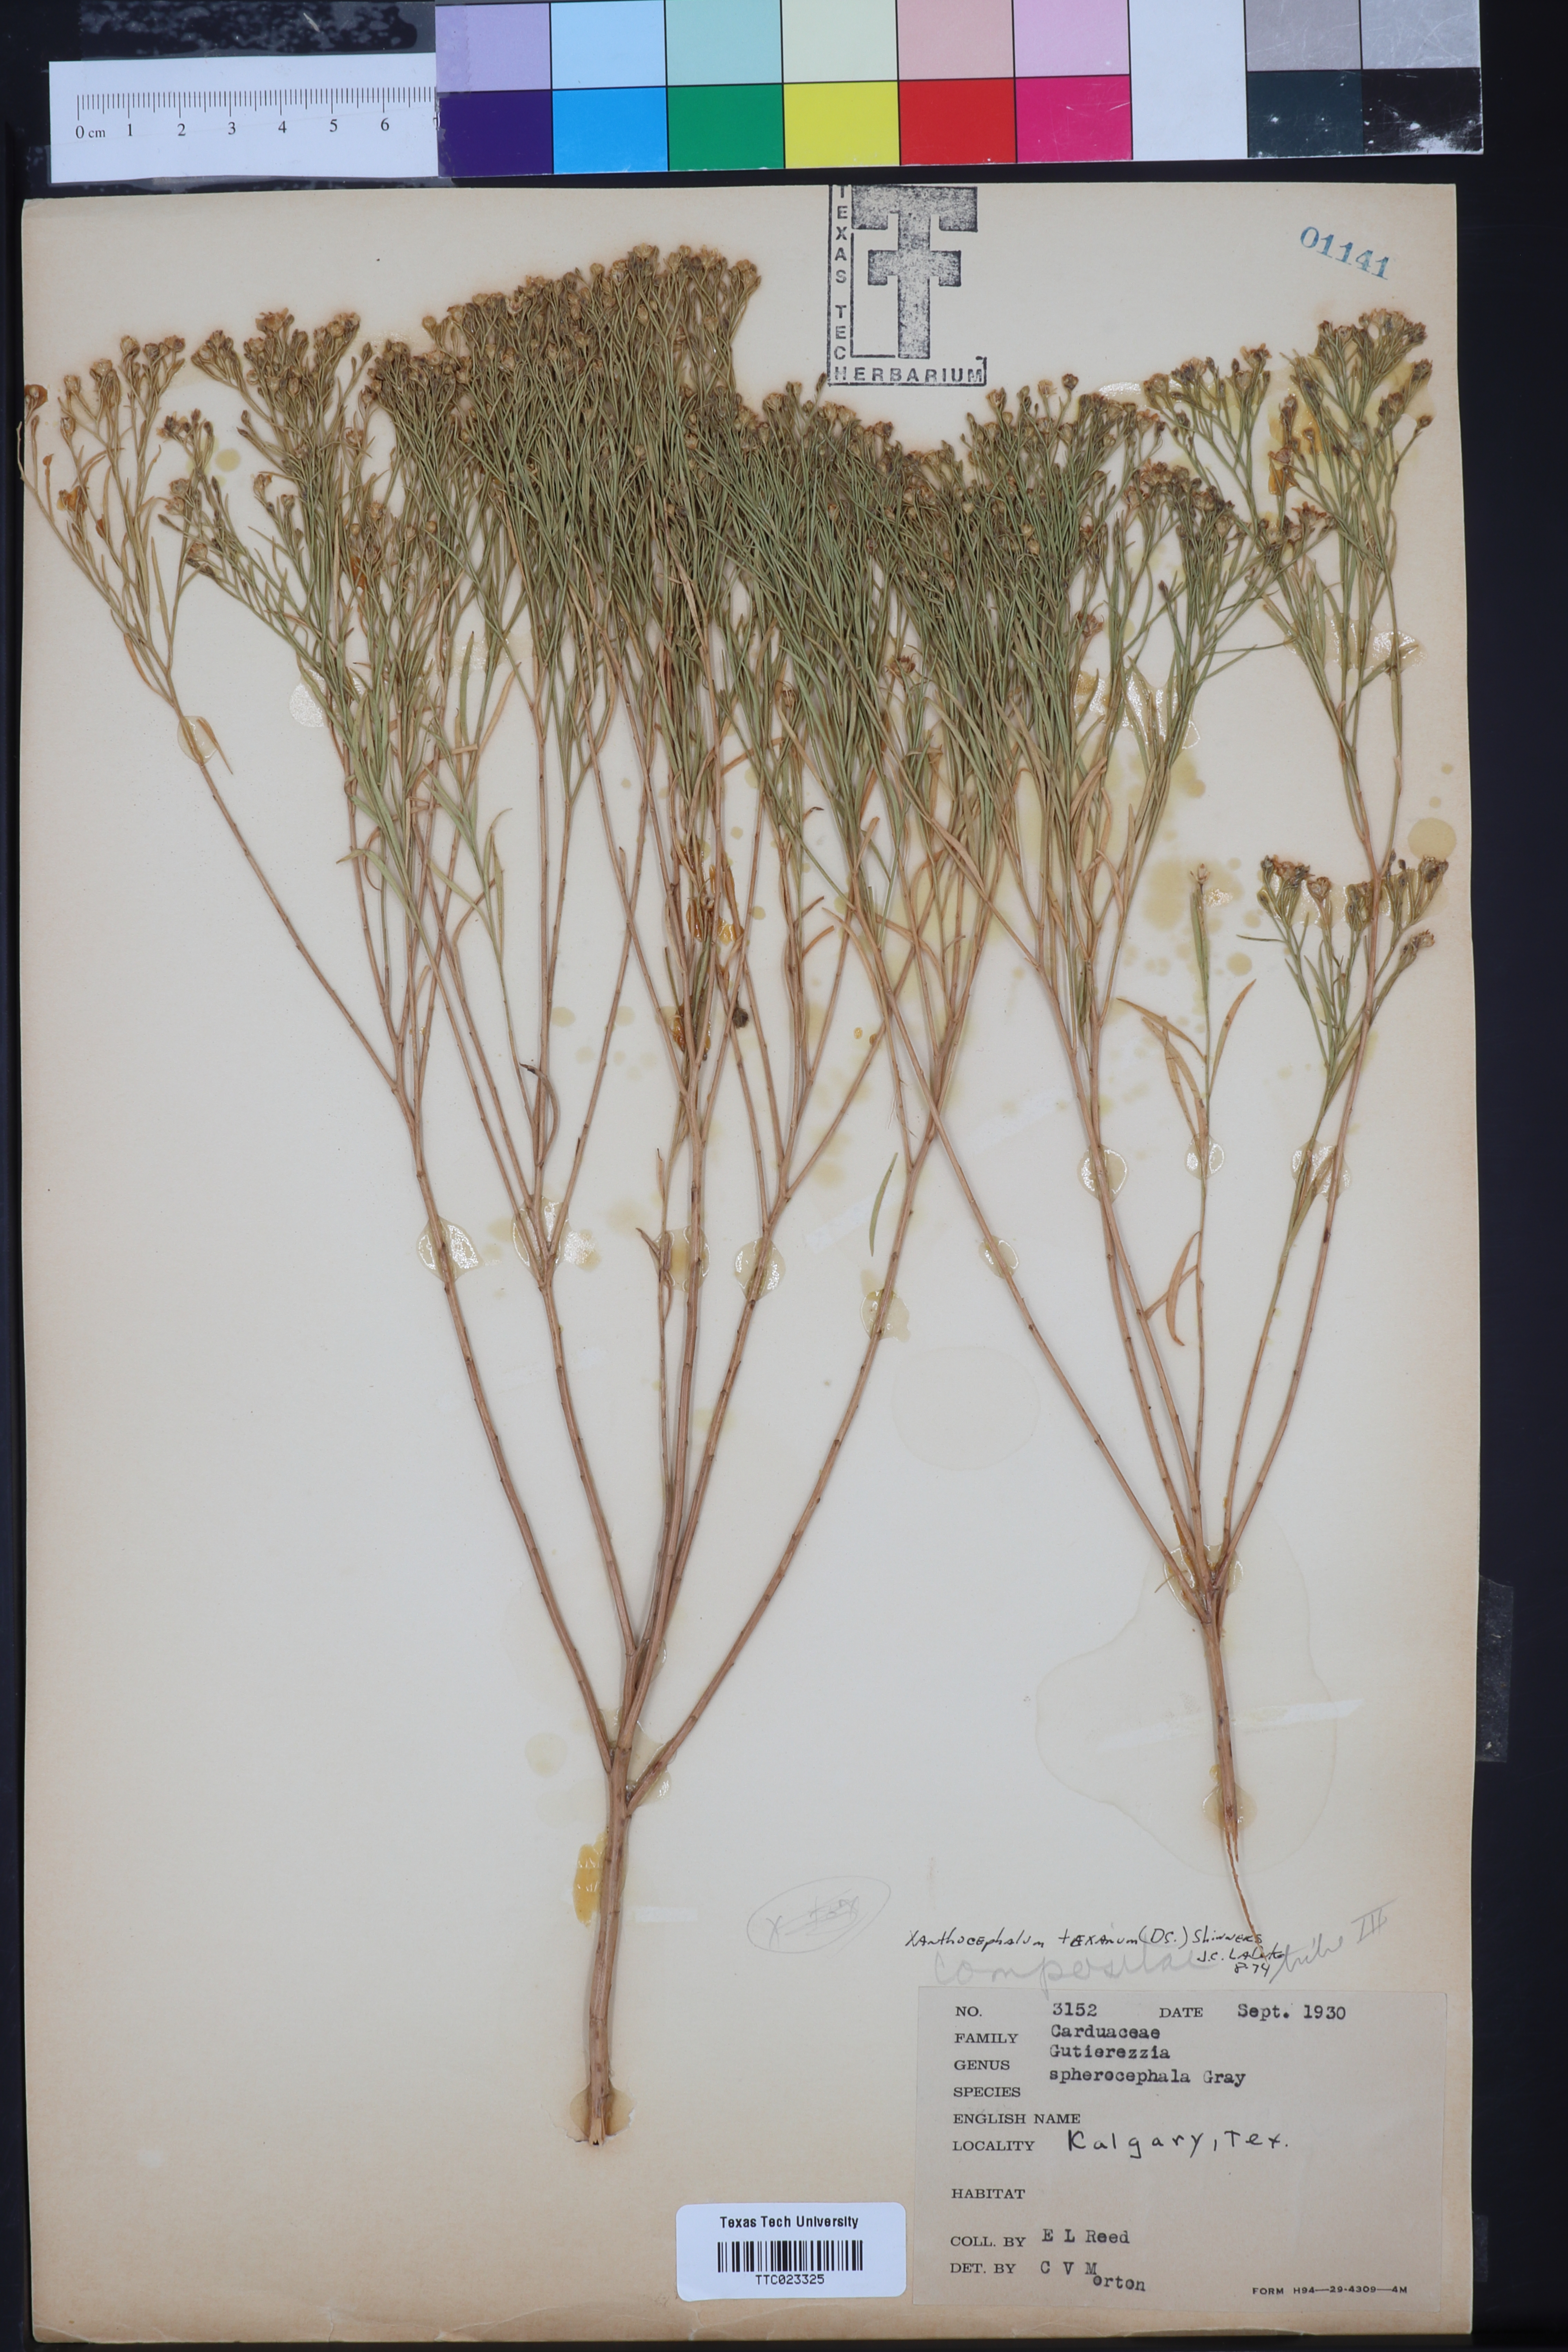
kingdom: Plantae
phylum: Tracheophyta
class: Magnoliopsida
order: Asterales
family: Asteraceae
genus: Gutierrezia
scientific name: Gutierrezia sphaerocephala
